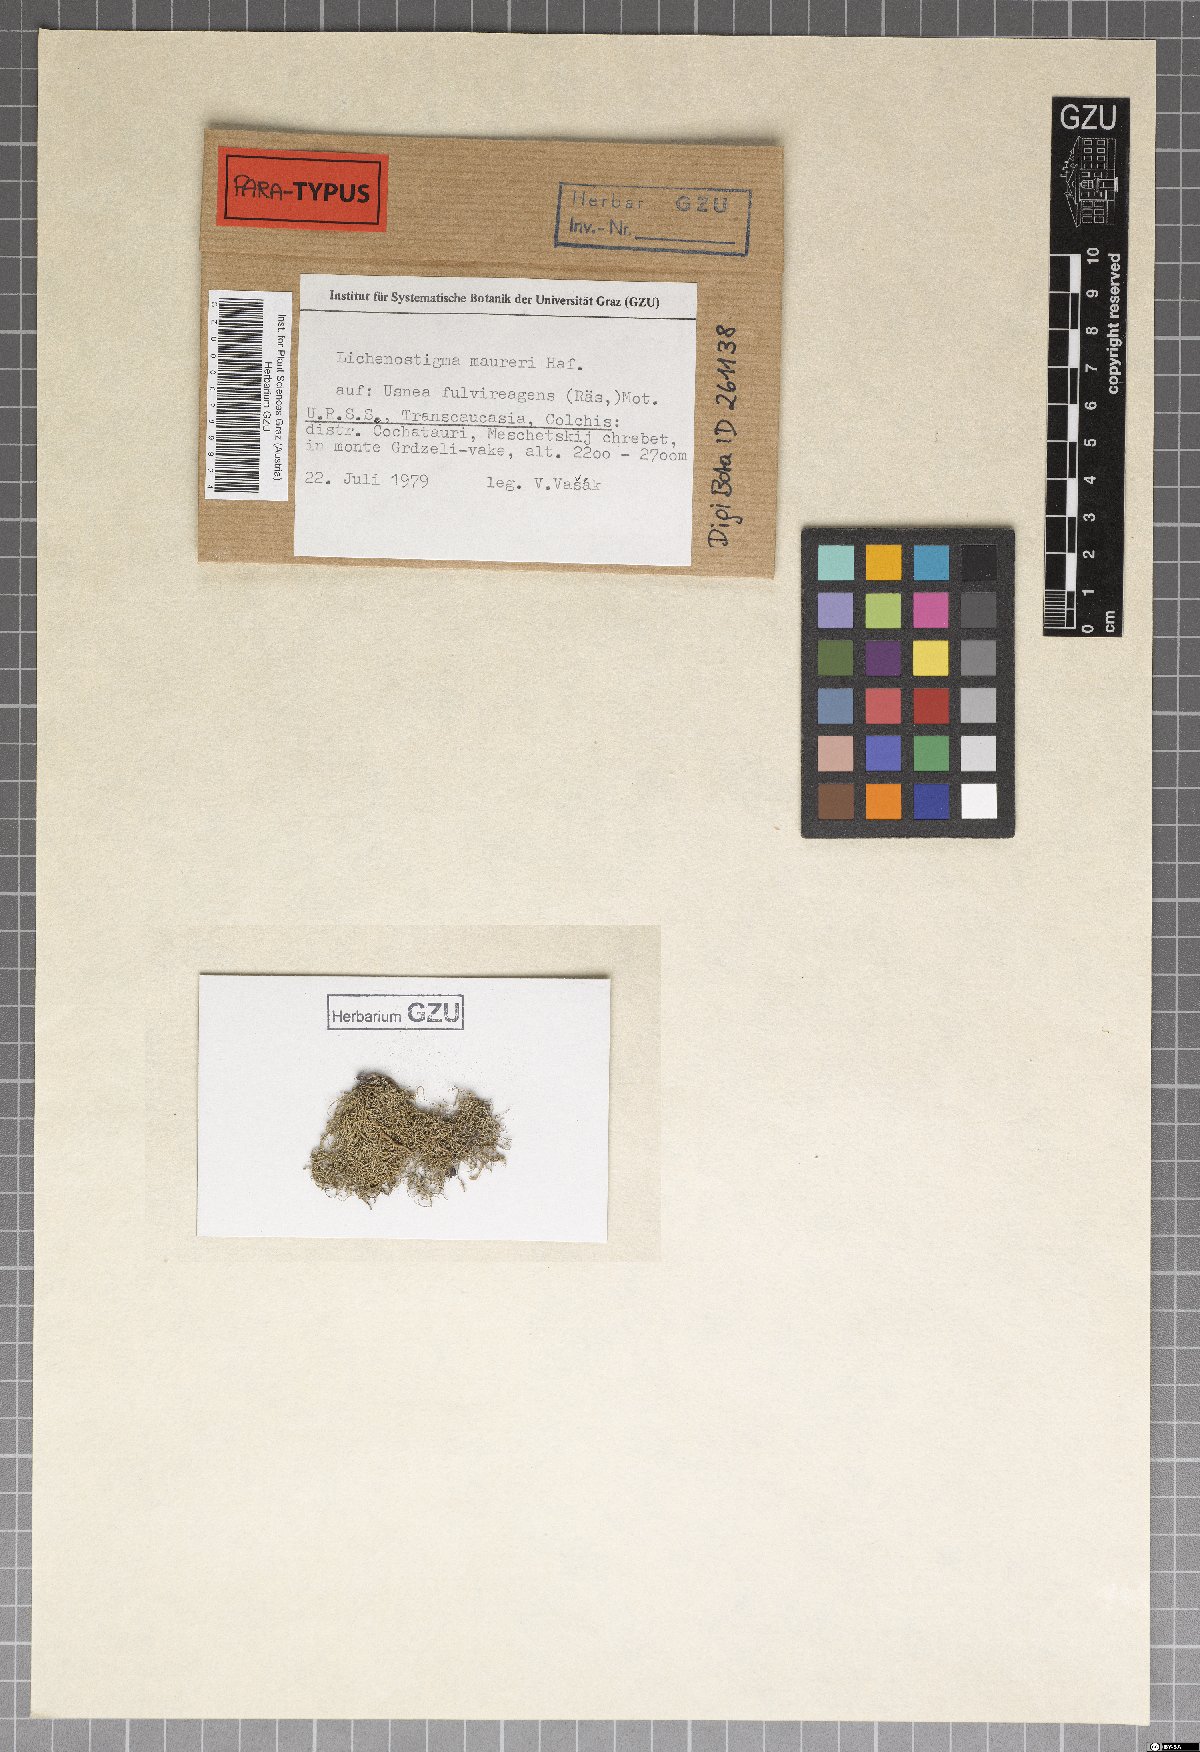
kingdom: Fungi
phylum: Ascomycota
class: Arthoniomycetes
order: Lichenostigmatales
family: Phaeococcomycetaceae
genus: Lichenostigma
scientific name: Lichenostigma maureri
